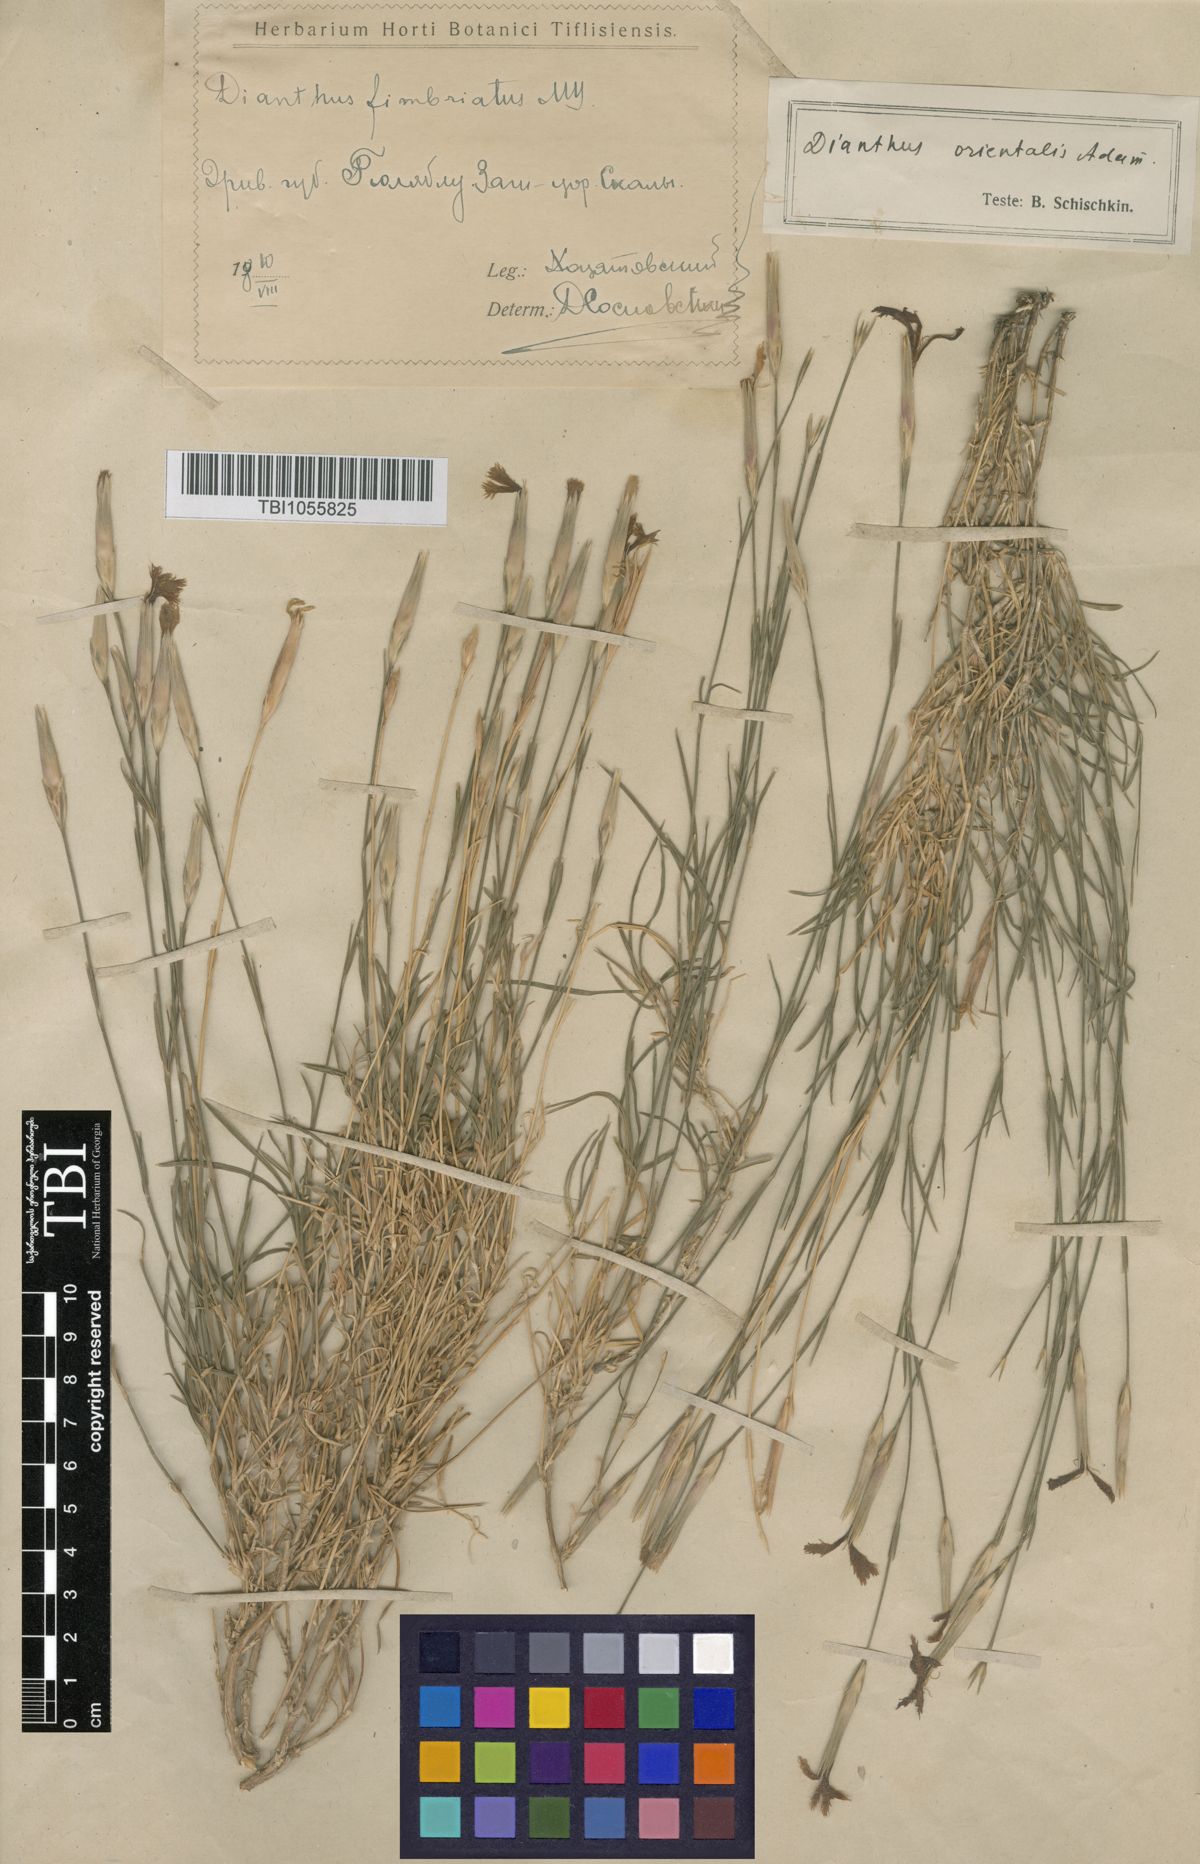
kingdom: Plantae
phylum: Tracheophyta
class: Magnoliopsida
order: Caryophyllales
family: Caryophyllaceae
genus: Dianthus
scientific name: Dianthus orientalis
